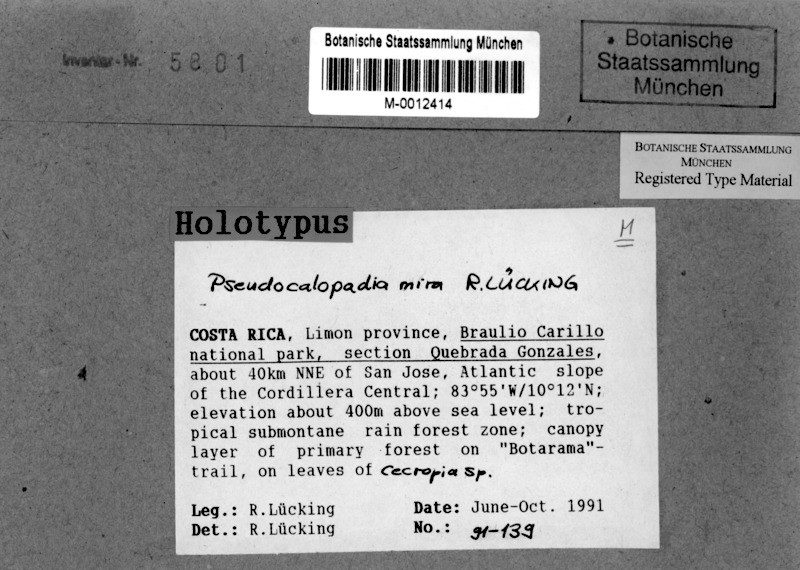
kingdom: Fungi
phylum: Ascomycota
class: Lecanoromycetes
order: Lecanorales
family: Byssolomataceae
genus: Pseudocalopadia
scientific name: Pseudocalopadia mira
